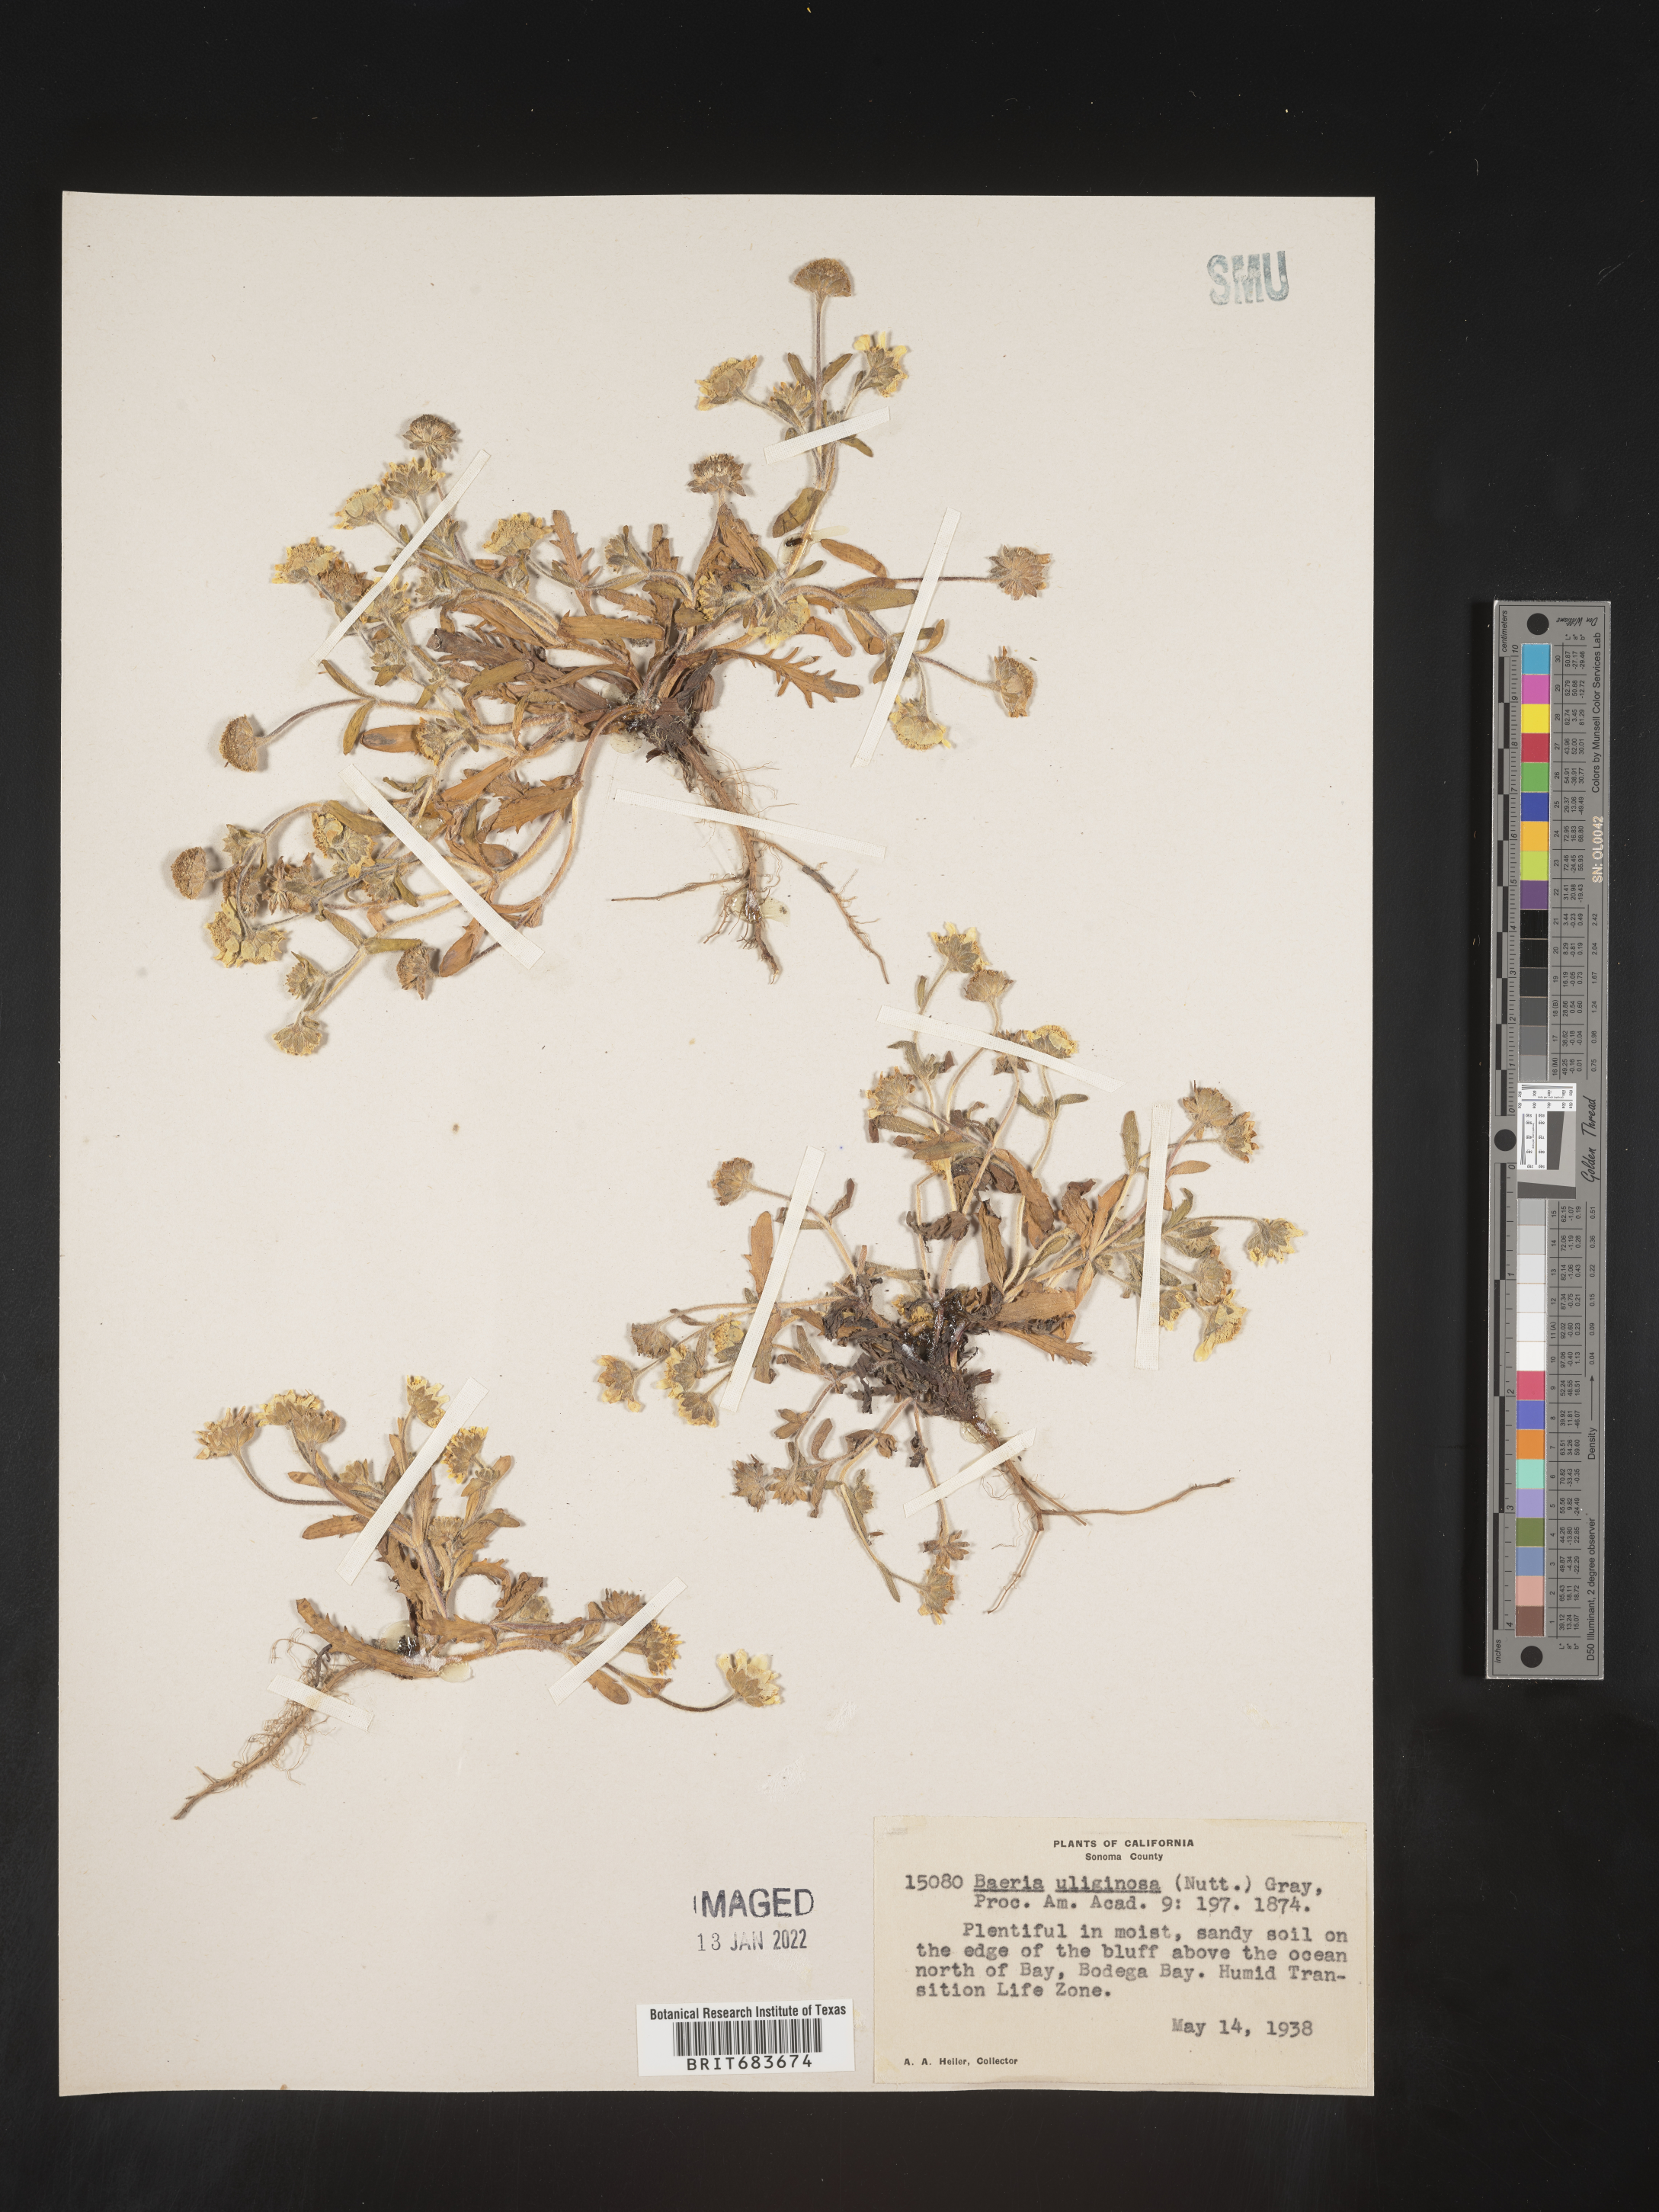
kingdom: Plantae
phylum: Tracheophyta
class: Magnoliopsida
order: Asterales
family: Asteraceae
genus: Lasthenia
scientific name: Lasthenia
